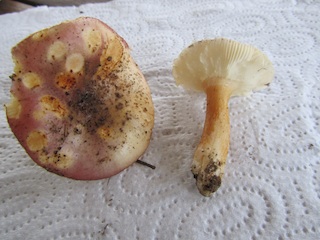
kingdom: Fungi
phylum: Basidiomycota
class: Agaricomycetes
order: Russulales
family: Russulaceae
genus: Russula
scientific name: Russula versicolor
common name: foranderlig skørhat
